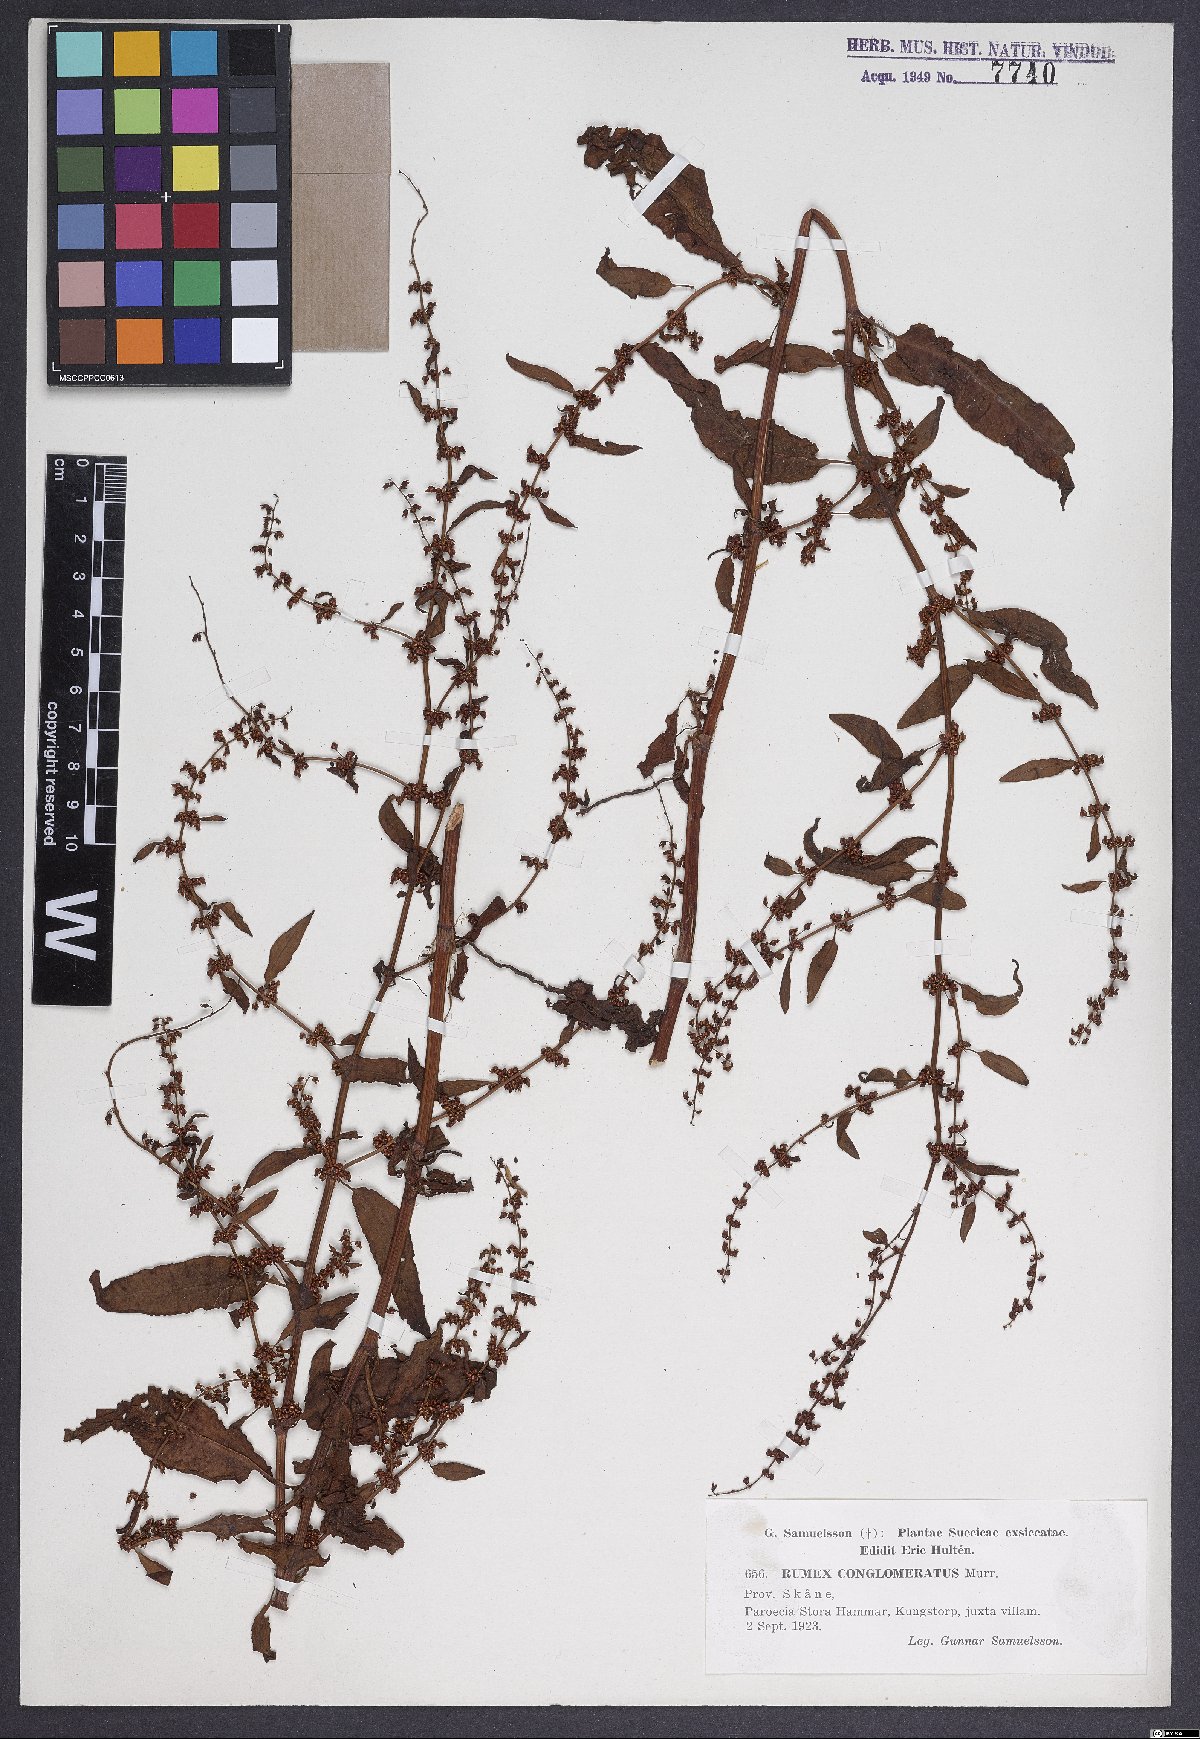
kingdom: Plantae
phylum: Tracheophyta
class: Magnoliopsida
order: Caryophyllales
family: Polygonaceae
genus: Rumex
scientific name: Rumex conglomeratus
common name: Clustered dock
